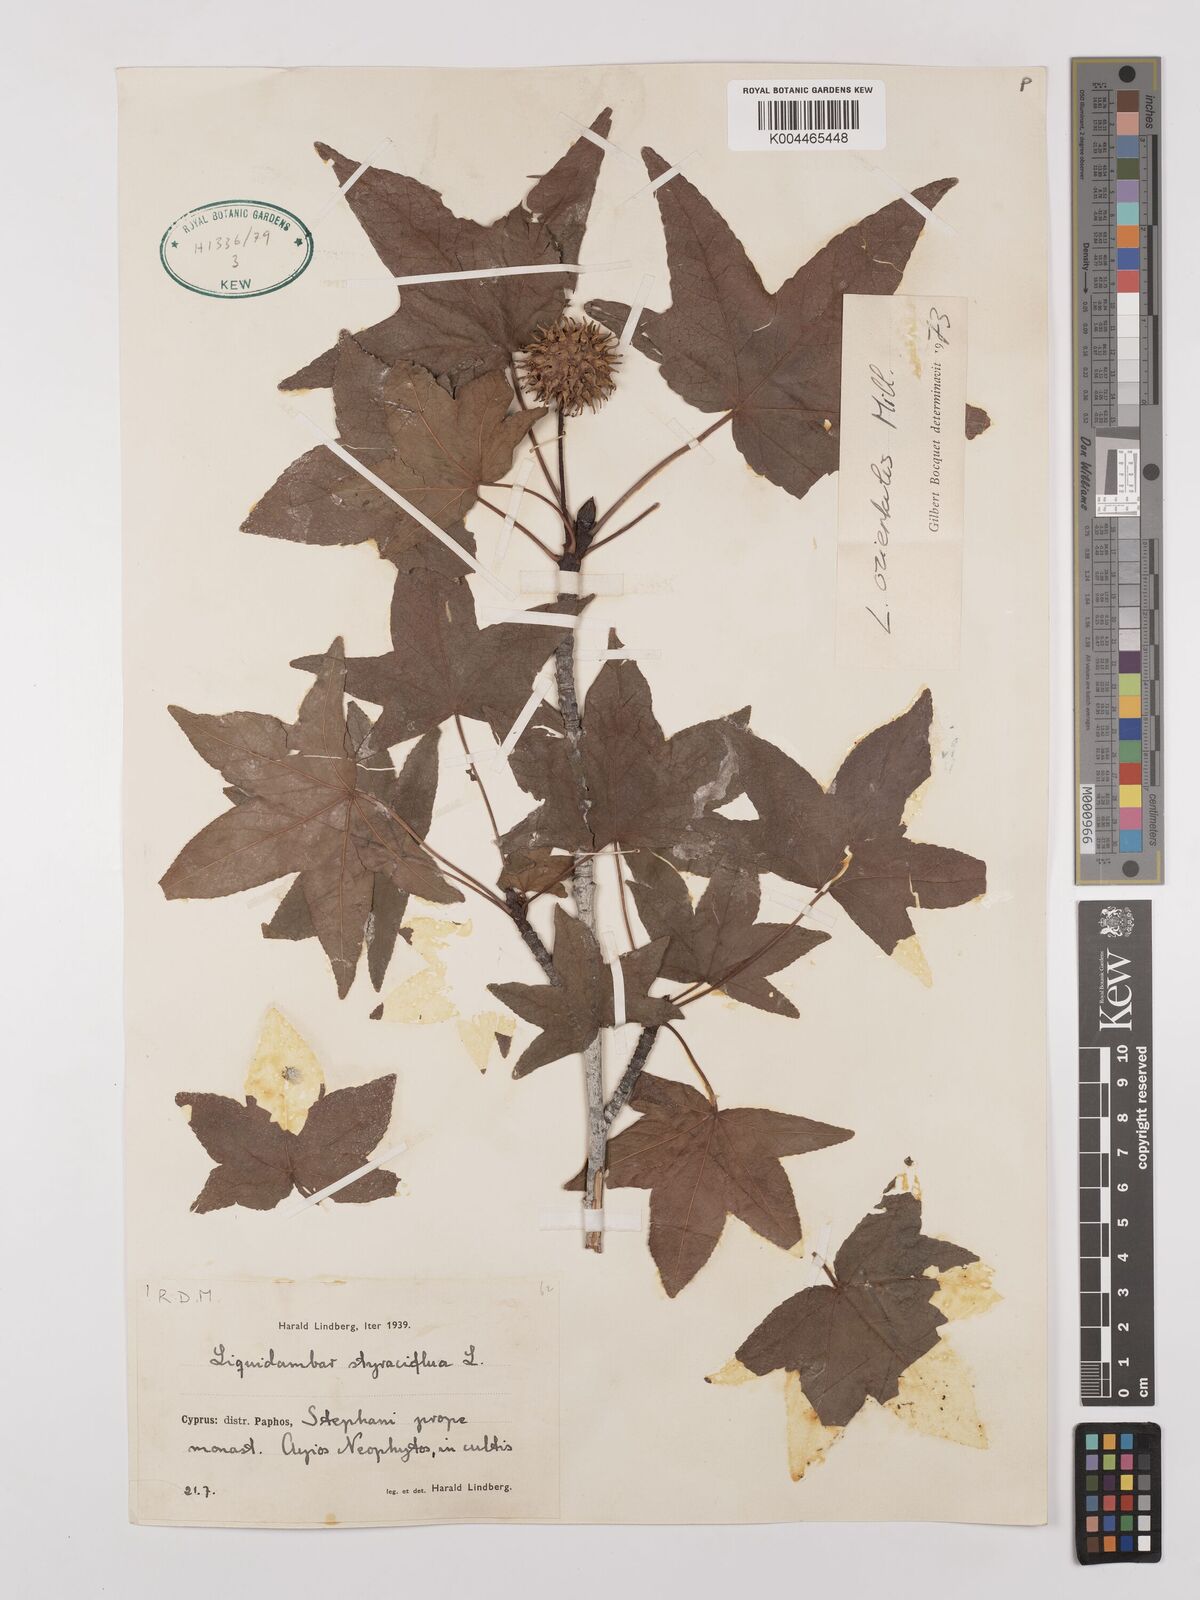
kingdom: Plantae
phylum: Tracheophyta
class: Magnoliopsida
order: Saxifragales
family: Altingiaceae
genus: Liquidambar
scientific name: Liquidambar styraciflua
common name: Sweet gum
